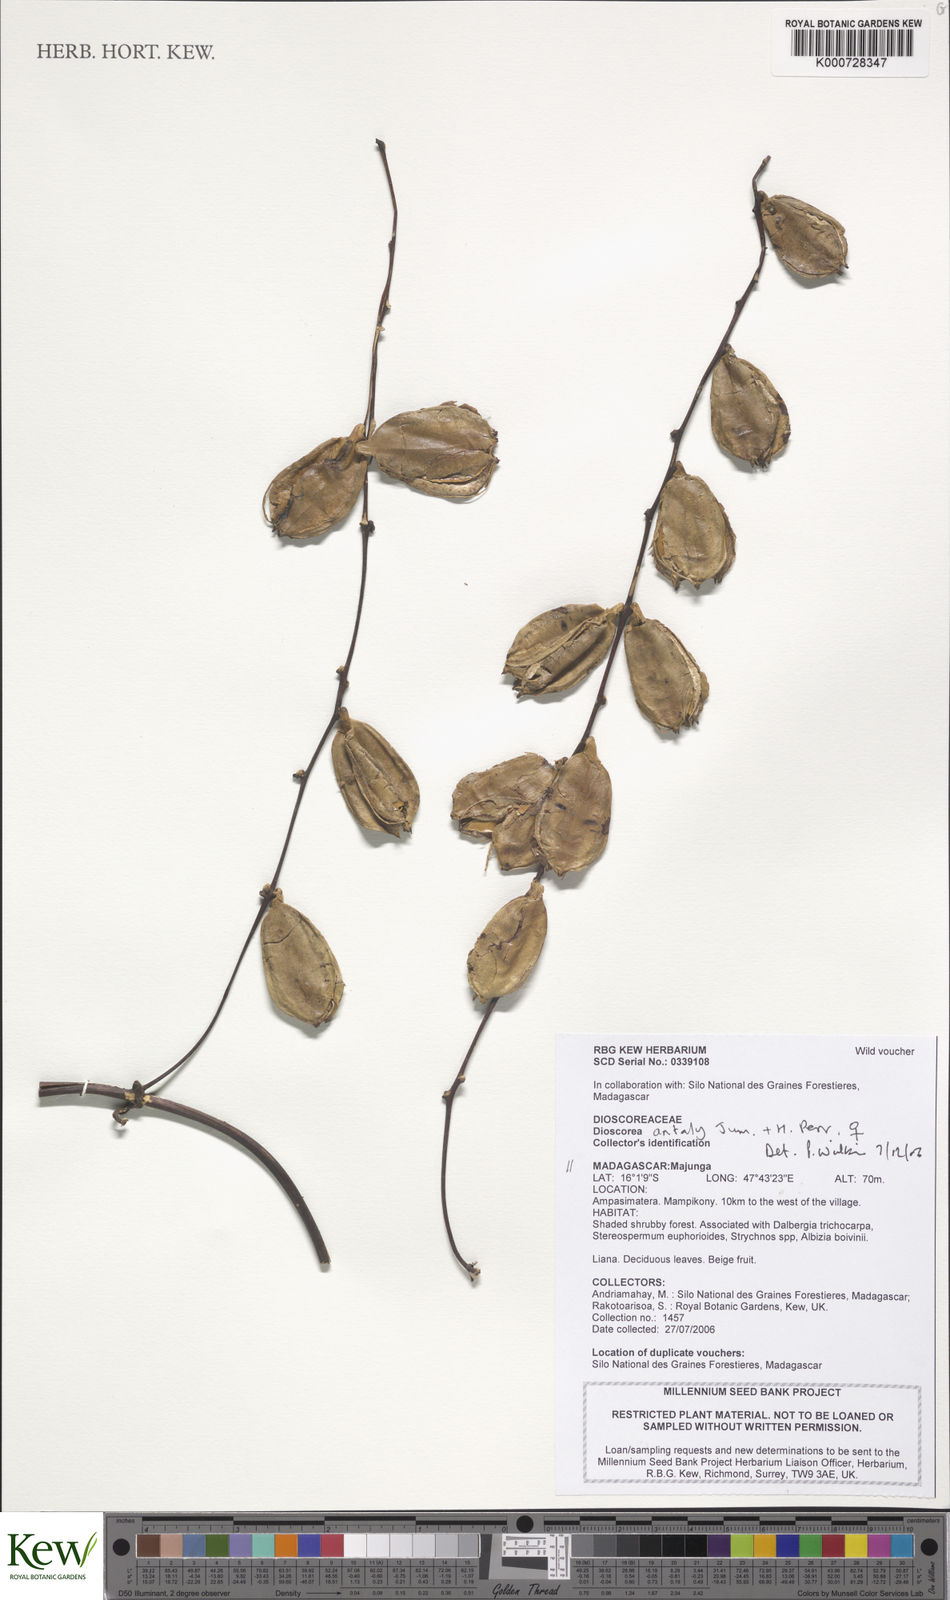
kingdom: Plantae
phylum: Tracheophyta
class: Liliopsida
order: Dioscoreales
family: Dioscoreaceae
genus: Dioscorea
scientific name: Dioscorea antaly
